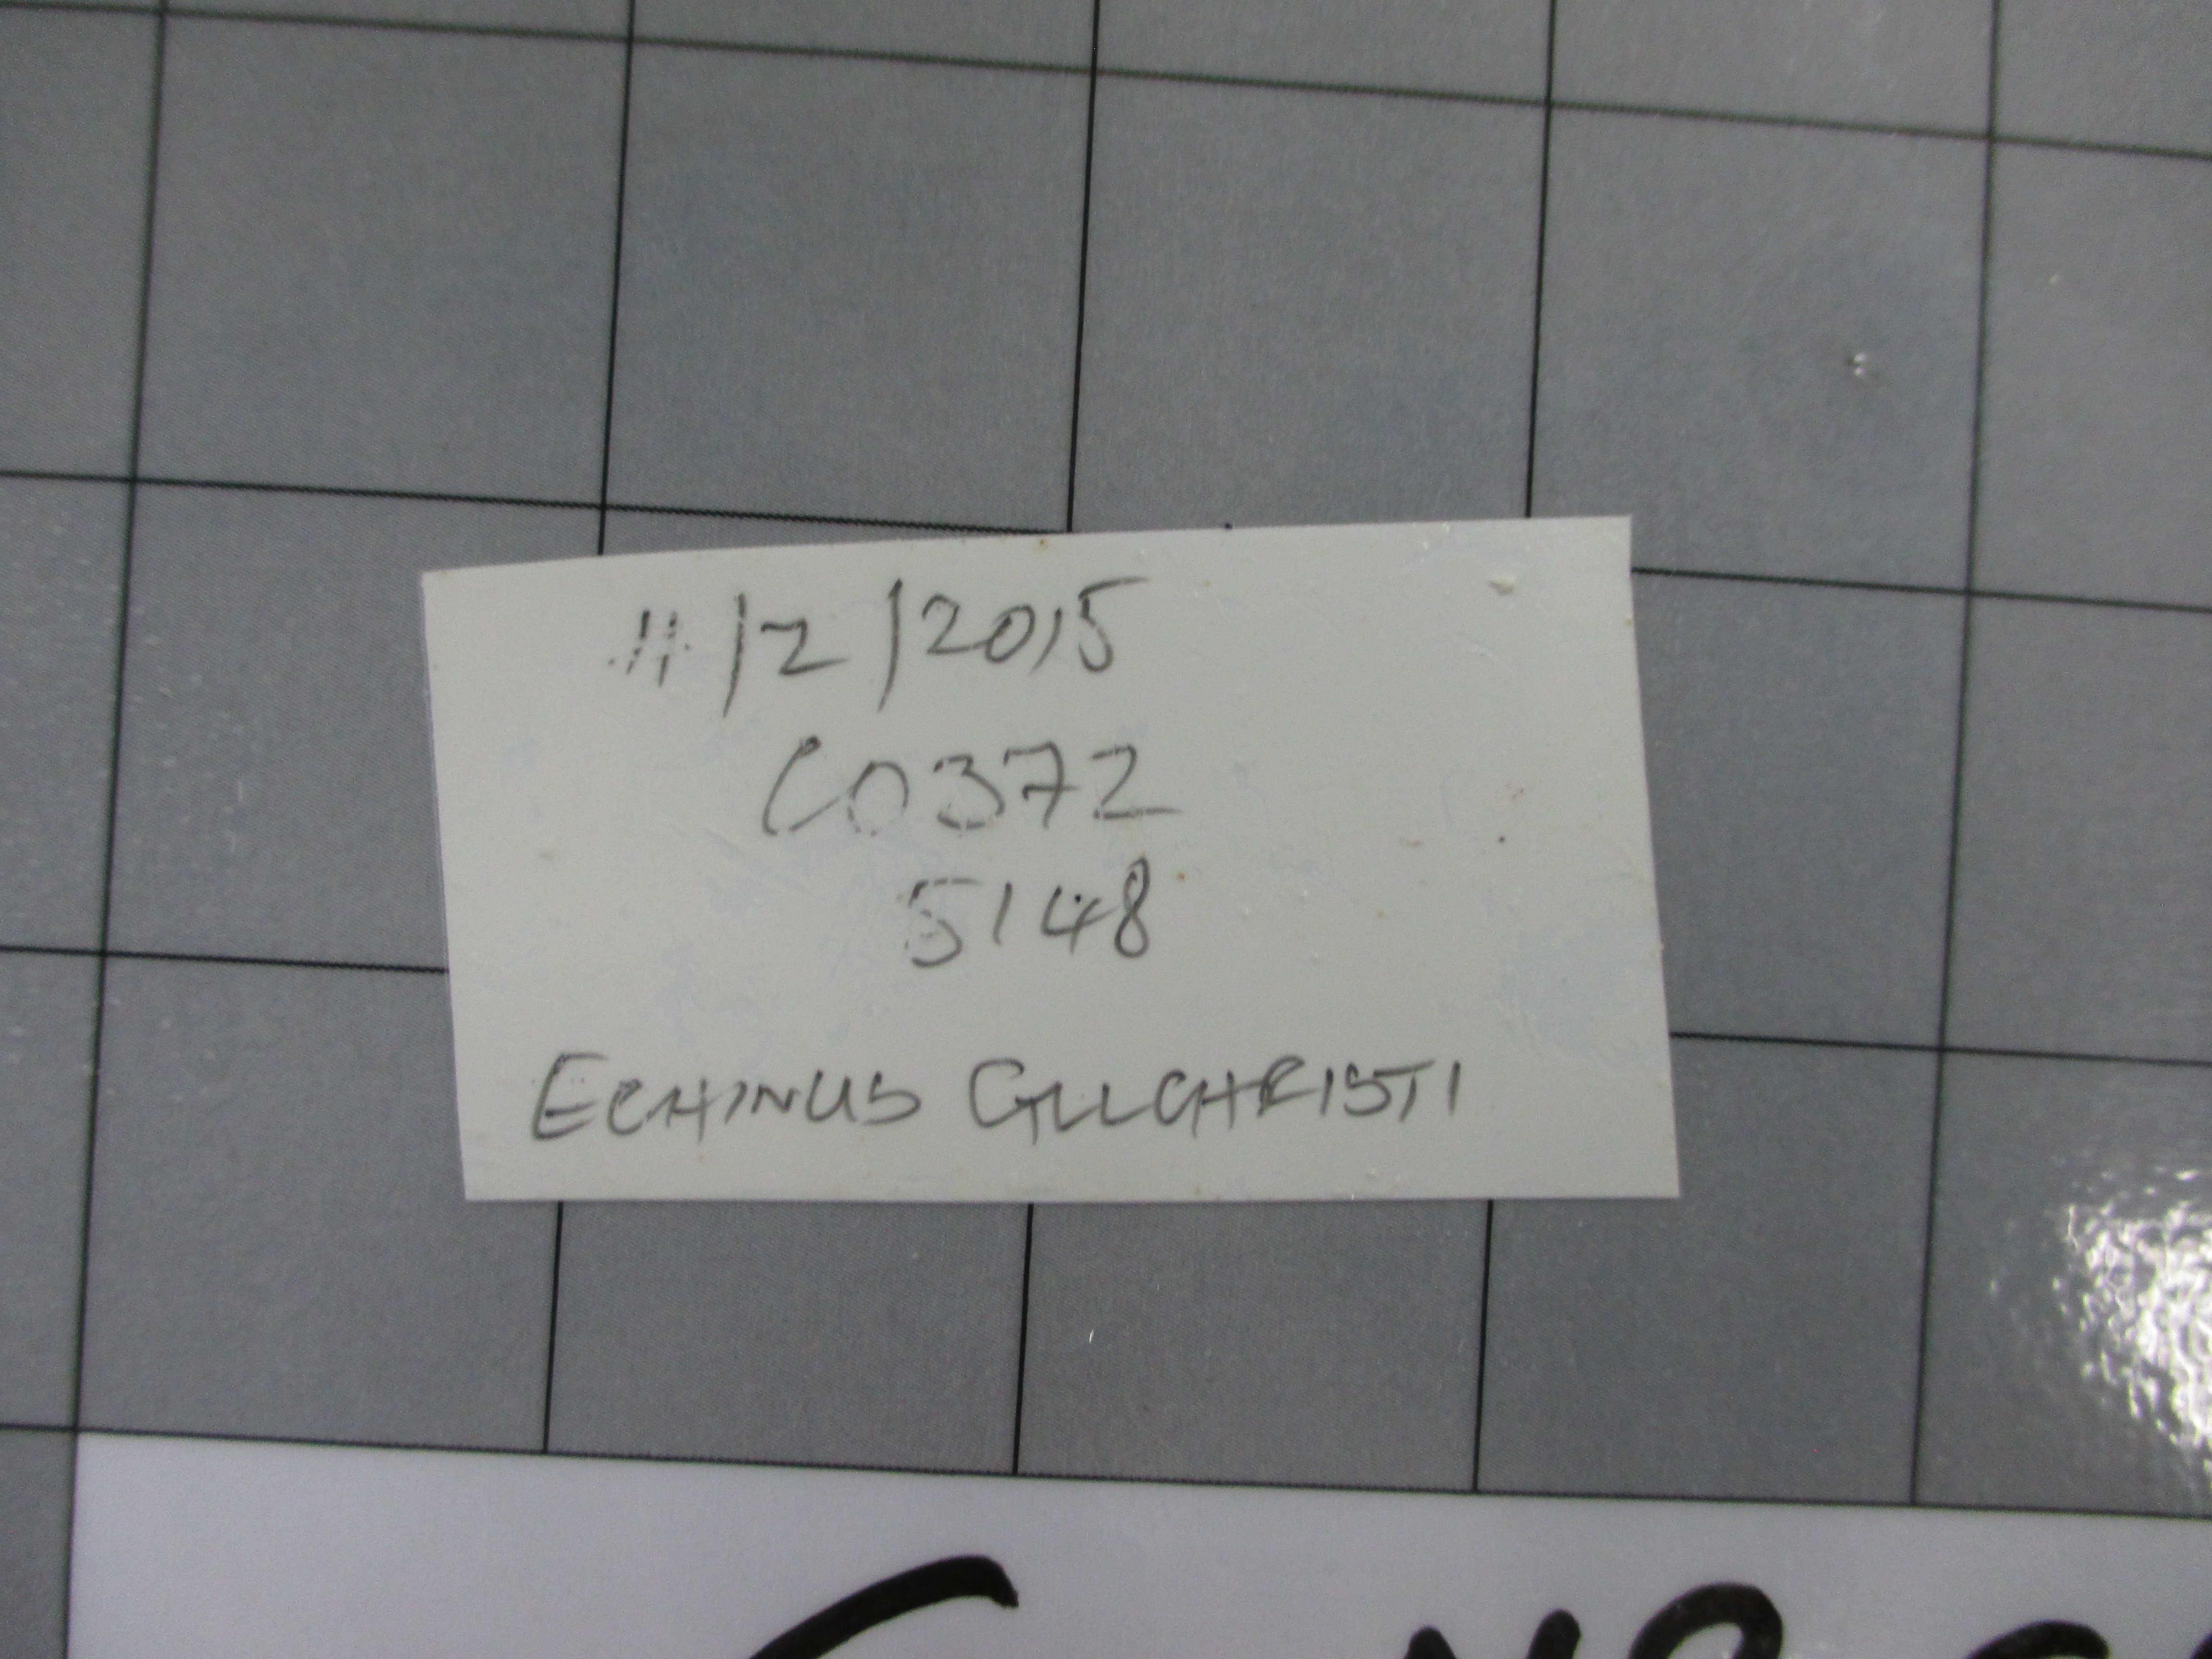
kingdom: Animalia
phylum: Echinodermata
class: Echinoidea
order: Camarodonta
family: Echinidae
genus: Echinus
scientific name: Echinus gilchristi
